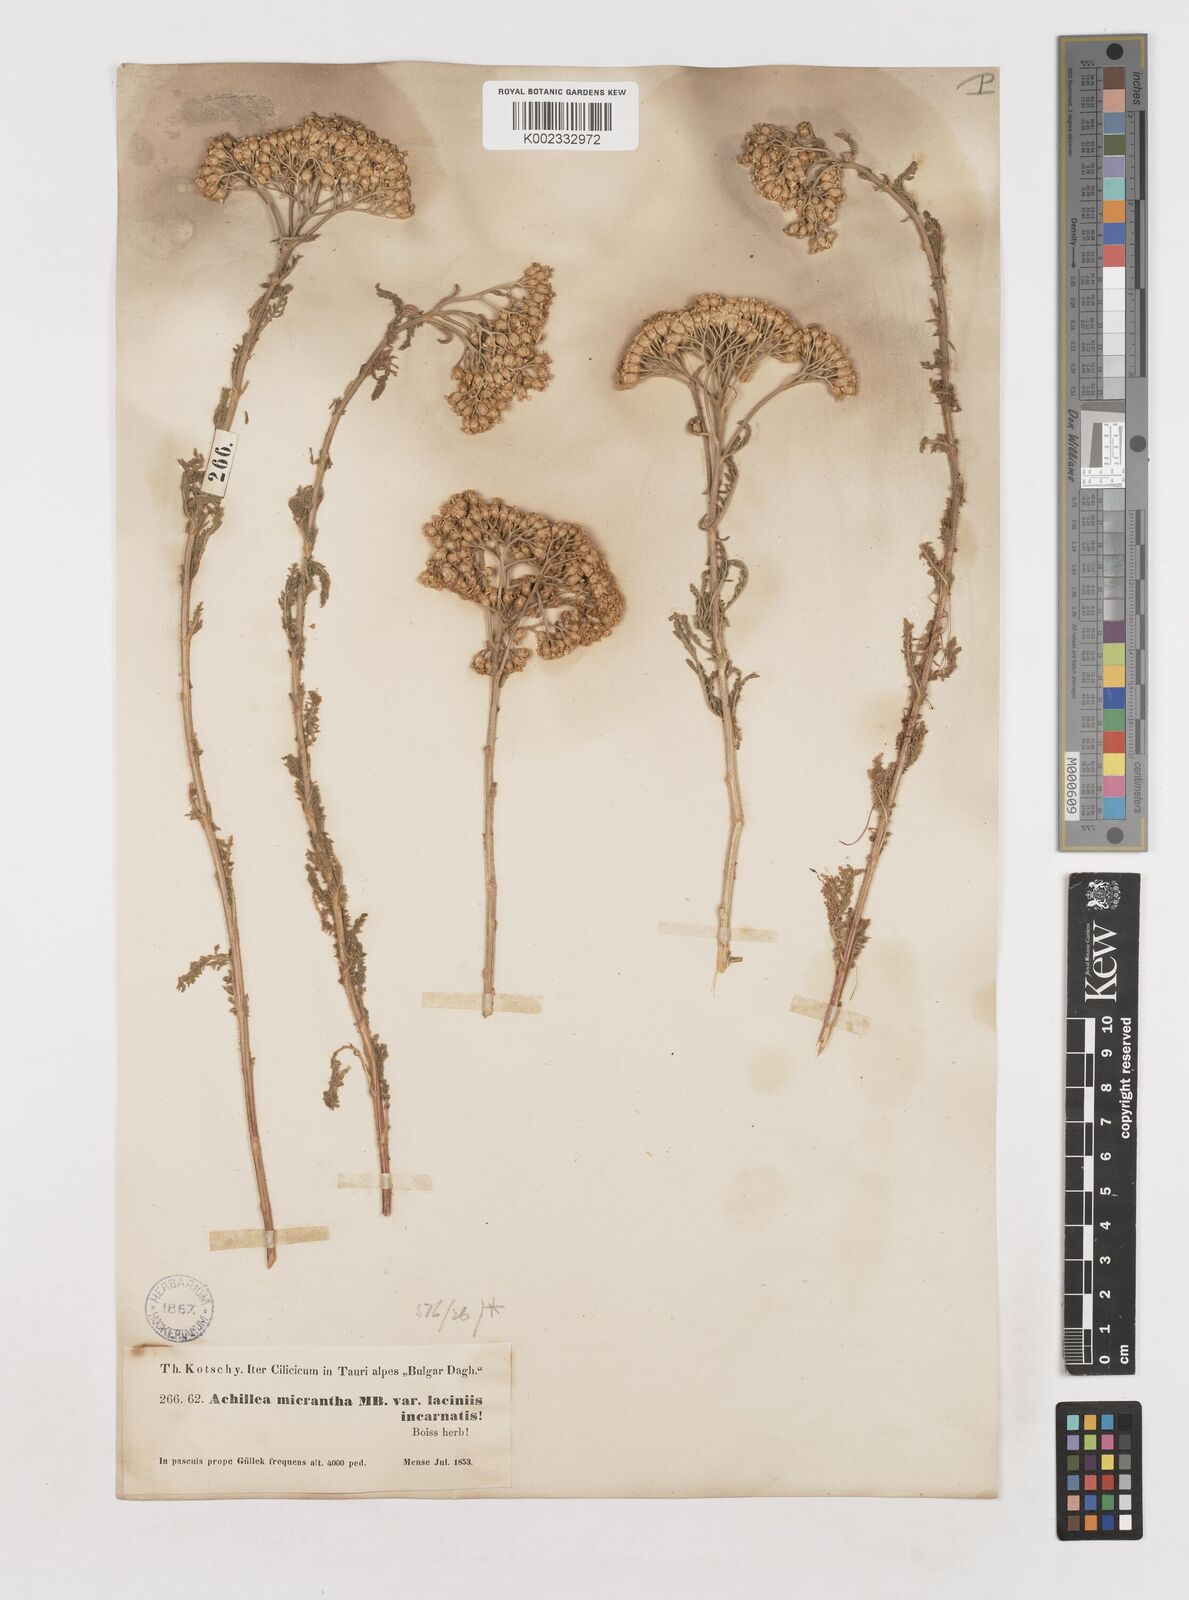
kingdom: Plantae
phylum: Tracheophyta
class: Magnoliopsida
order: Asterales
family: Asteraceae
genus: Achillea
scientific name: Achillea arabica
